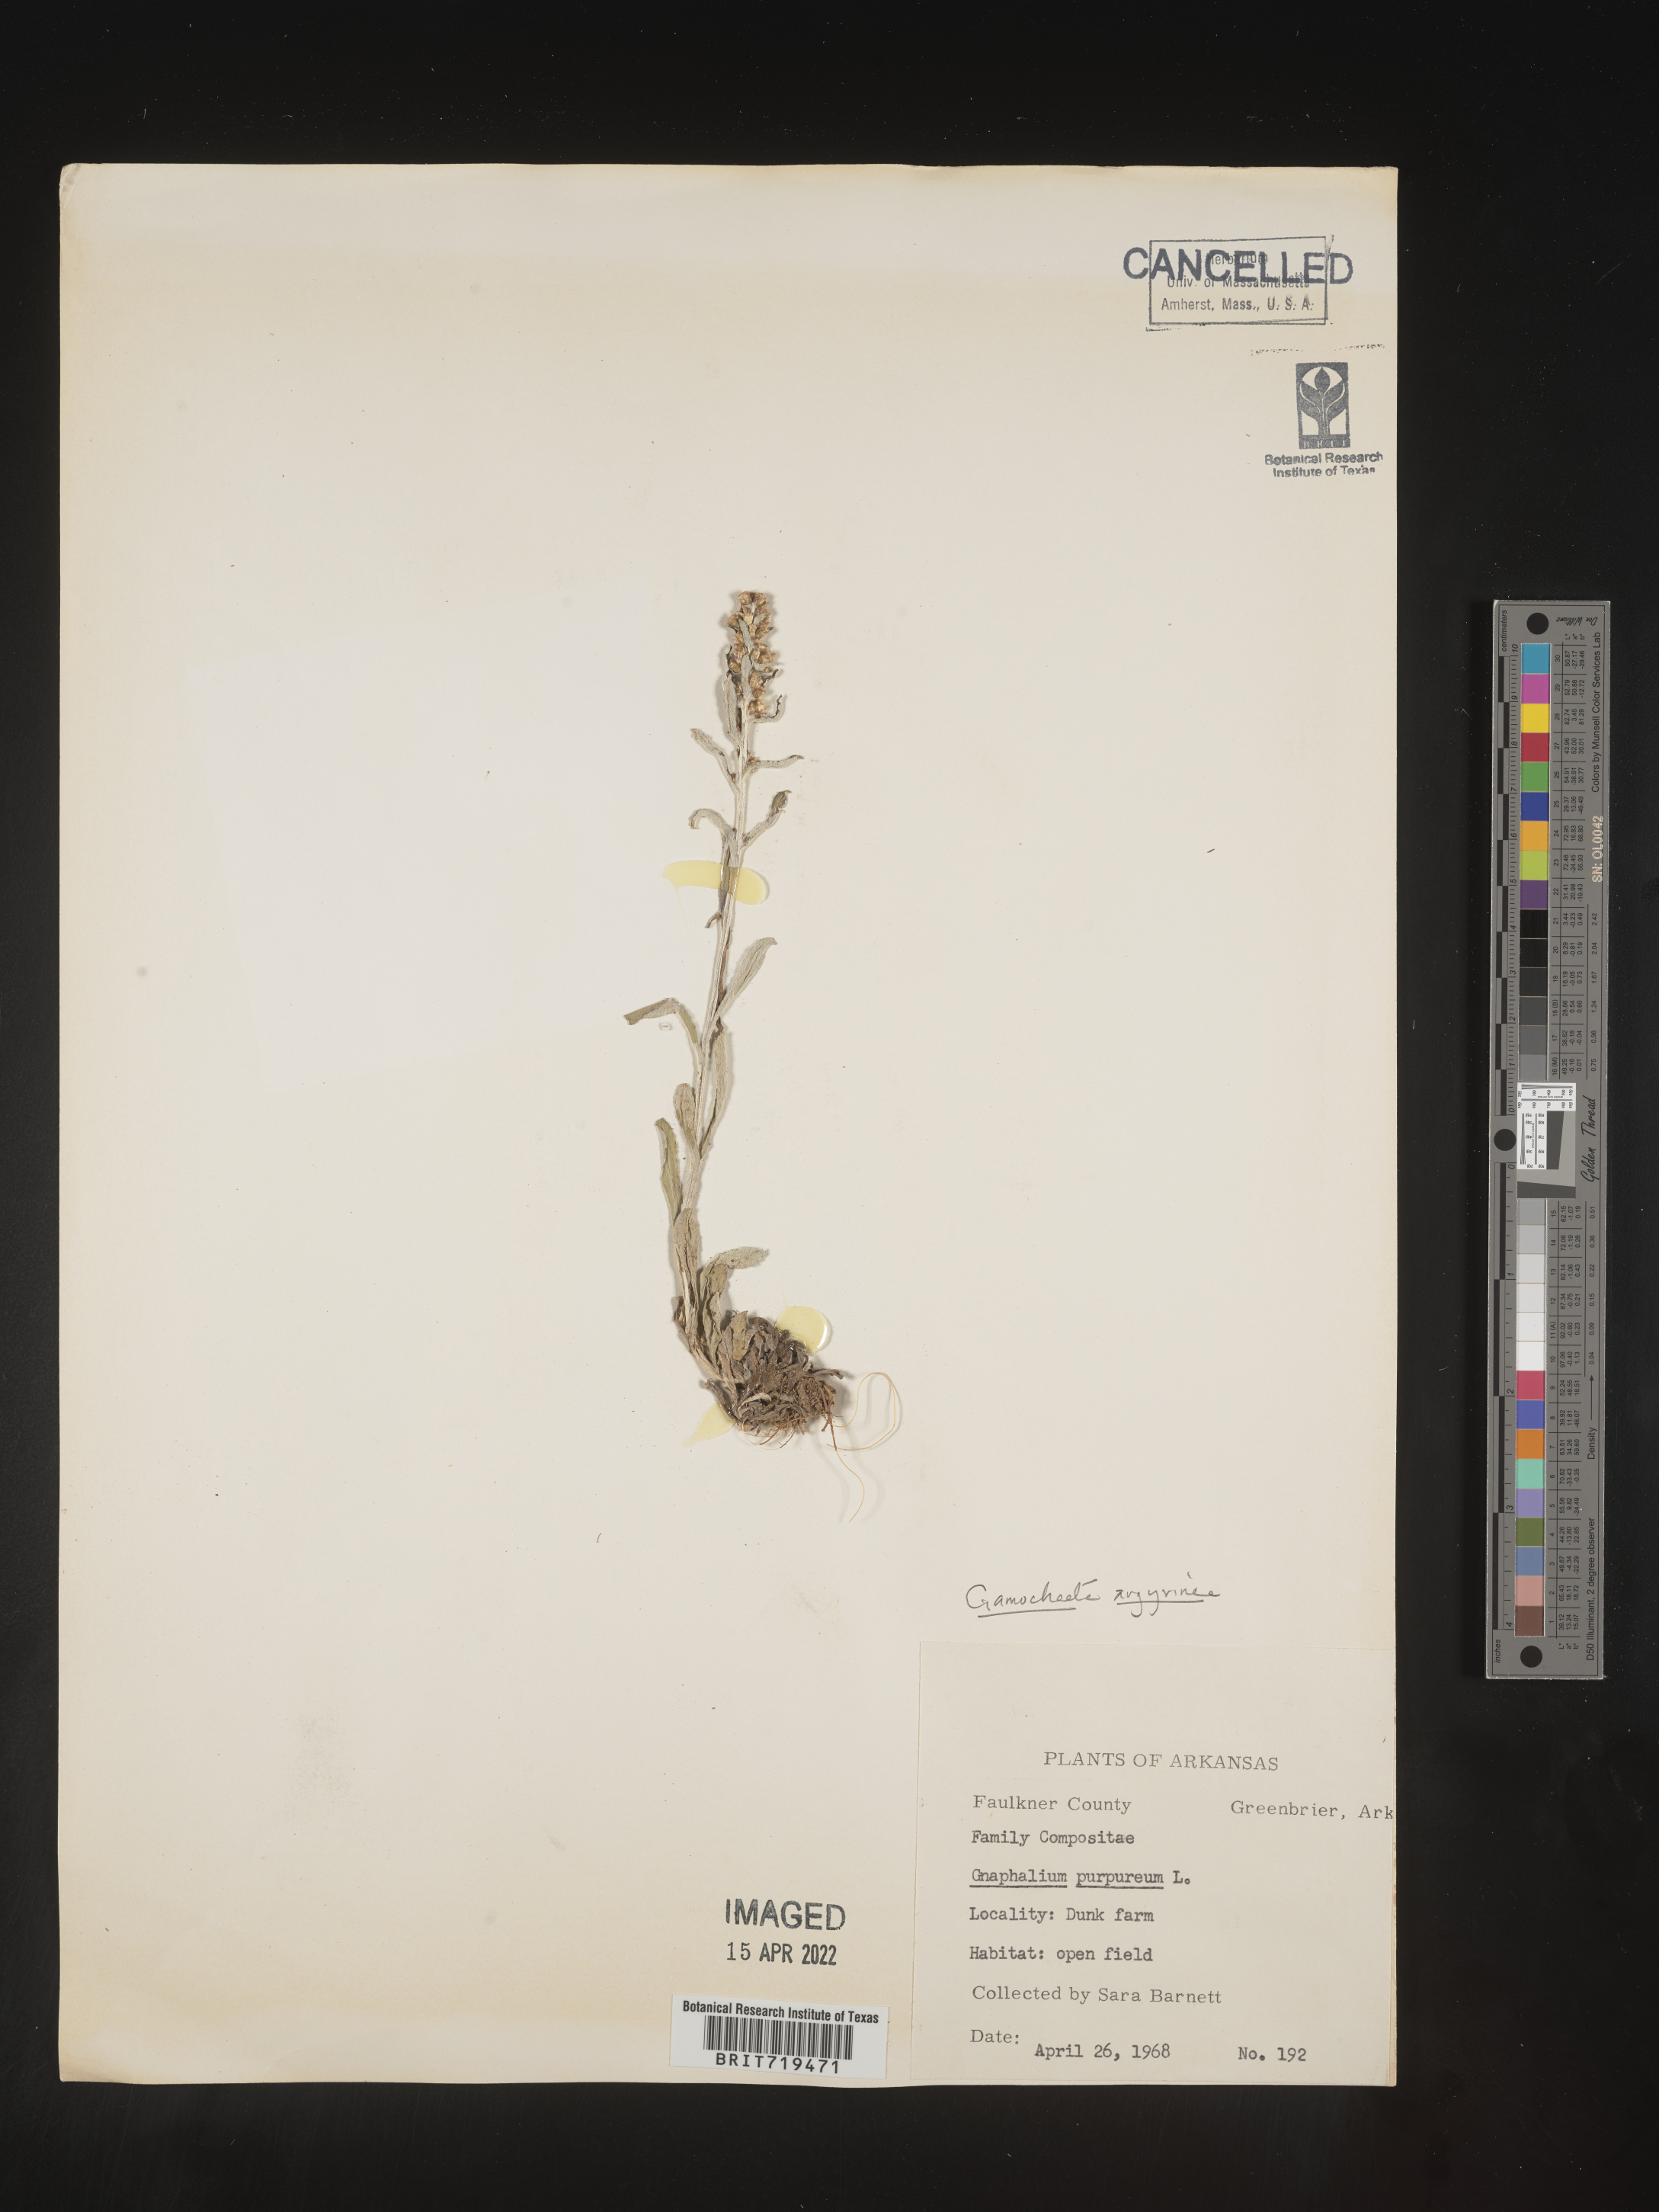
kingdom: Plantae
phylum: Tracheophyta
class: Magnoliopsida
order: Asterales
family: Asteraceae
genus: Gamochaeta
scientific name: Gamochaeta argyrinea
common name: Silvery cudweed
